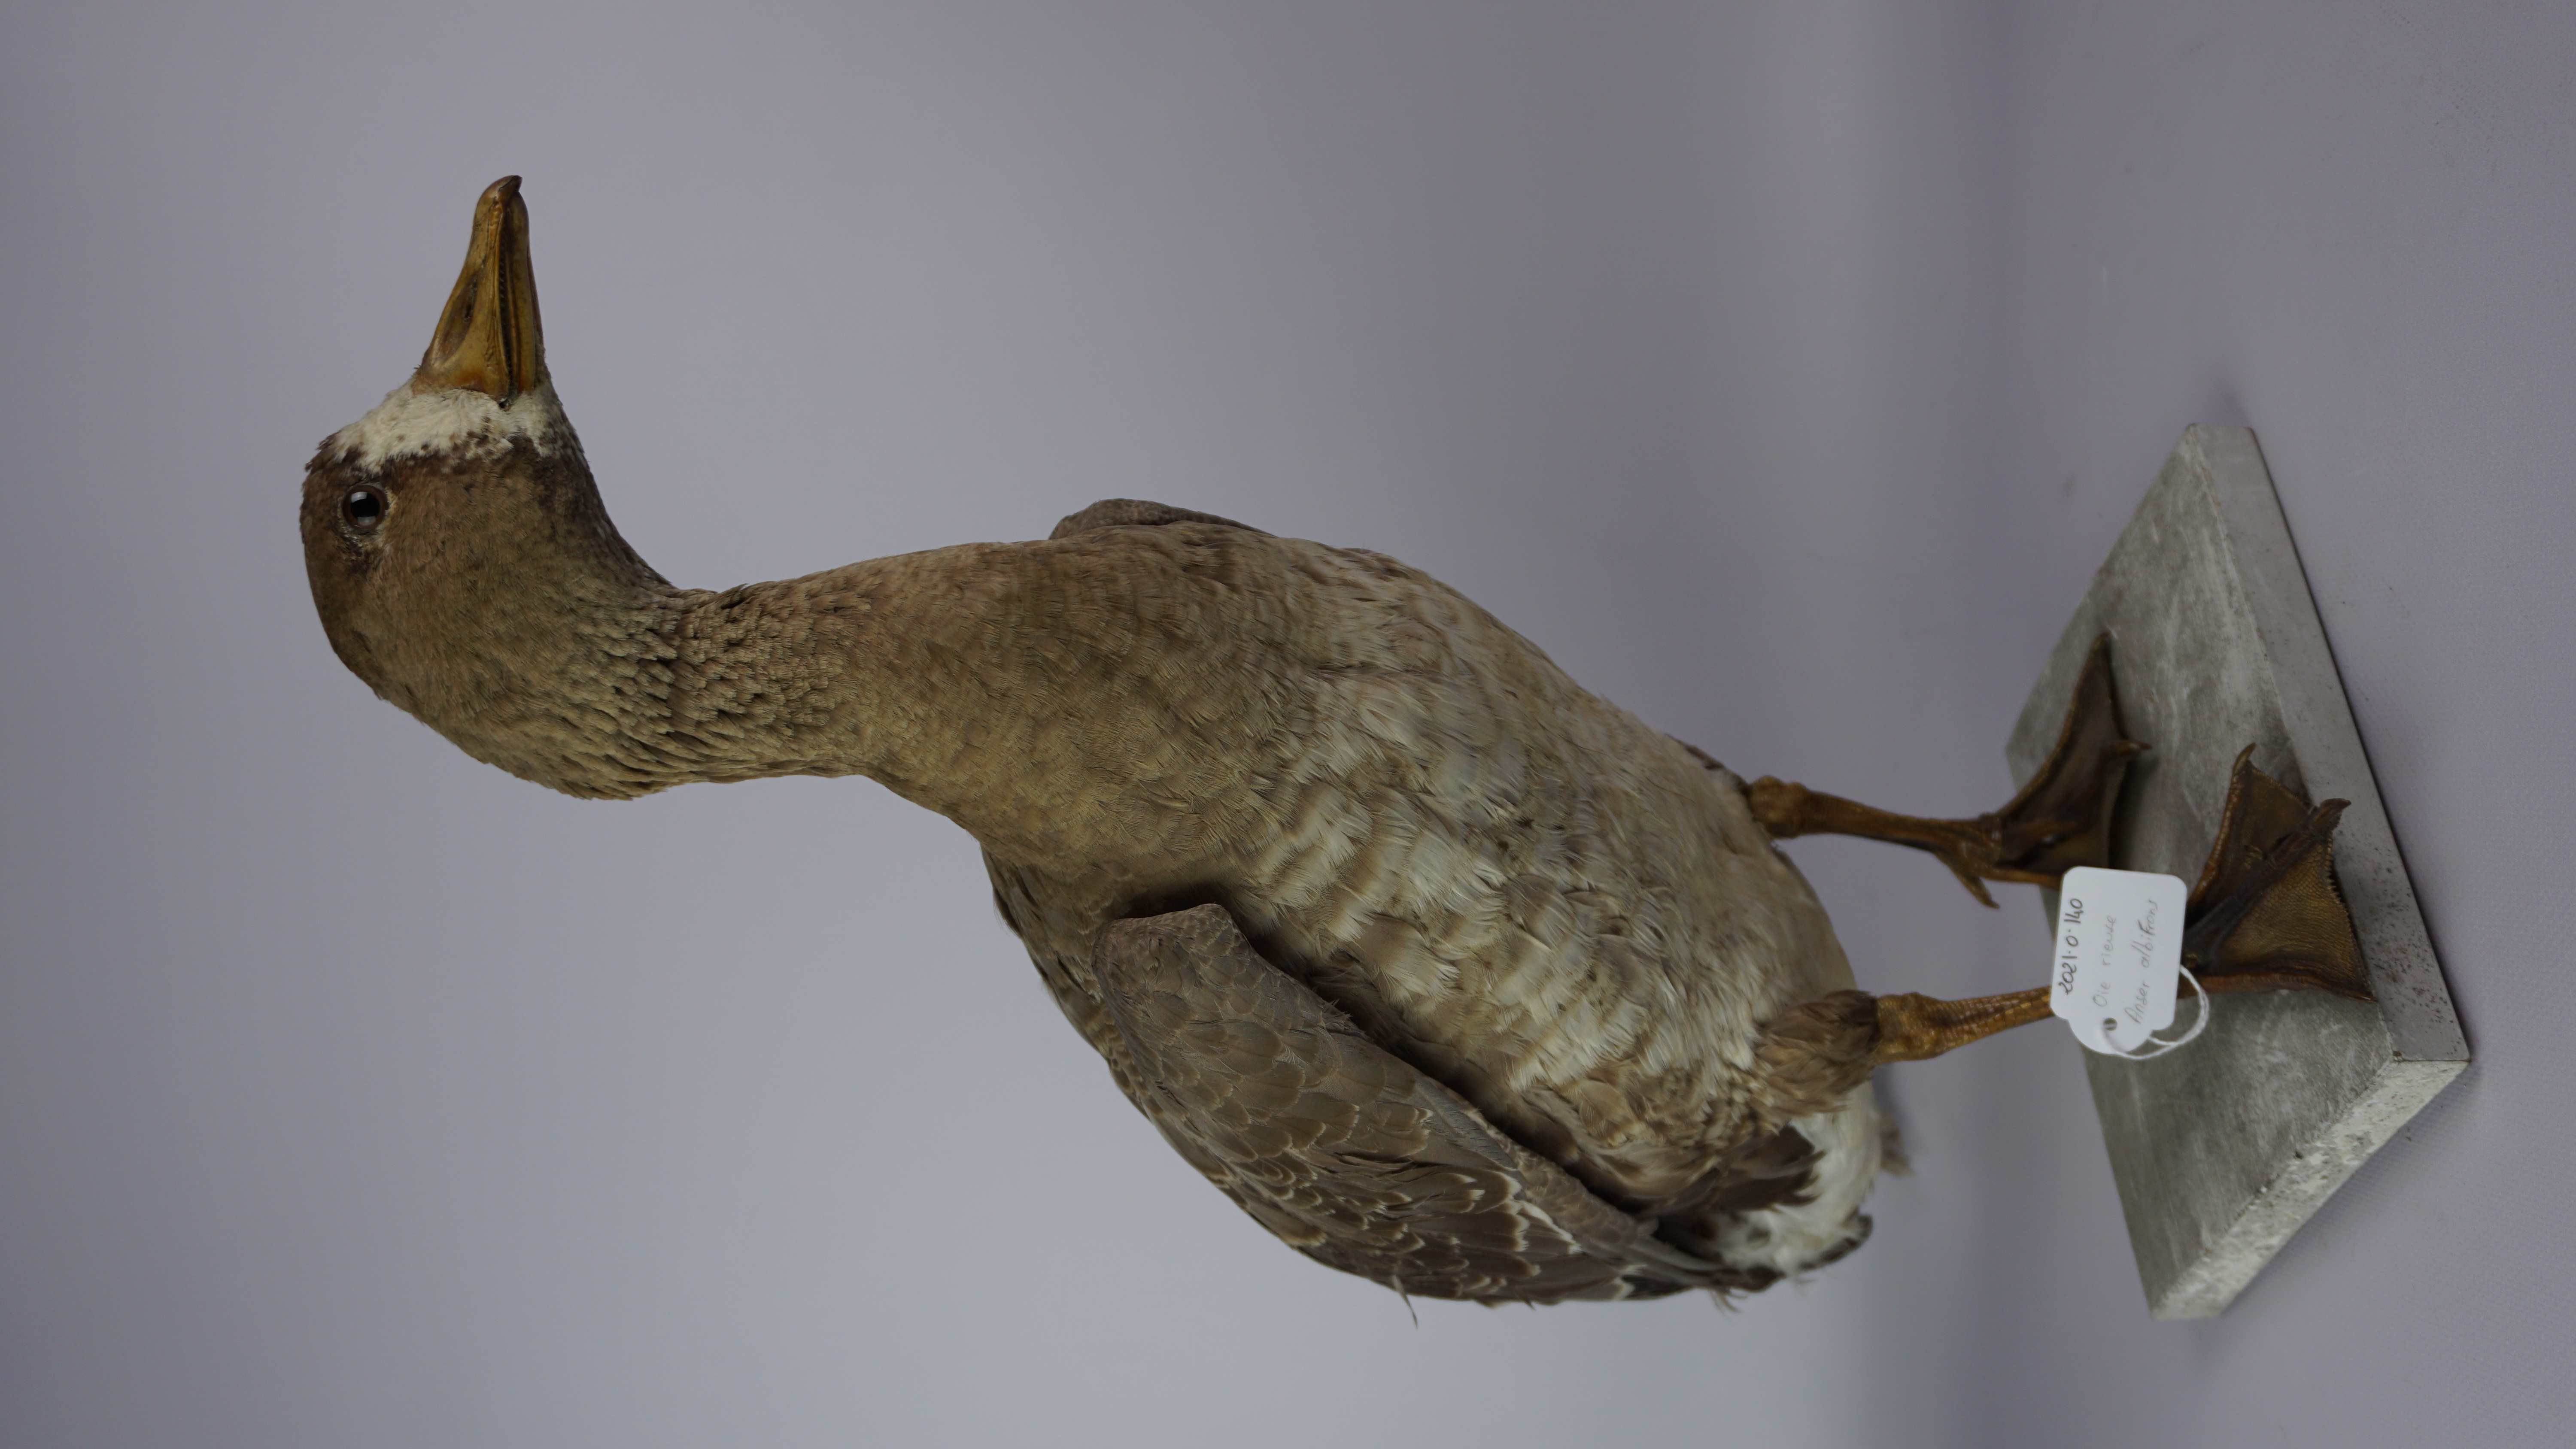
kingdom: Animalia
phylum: Chordata
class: Aves
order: Anseriformes
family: Anatidae
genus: Anser
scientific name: Anser albifrons
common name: Greater white-fronted goose
